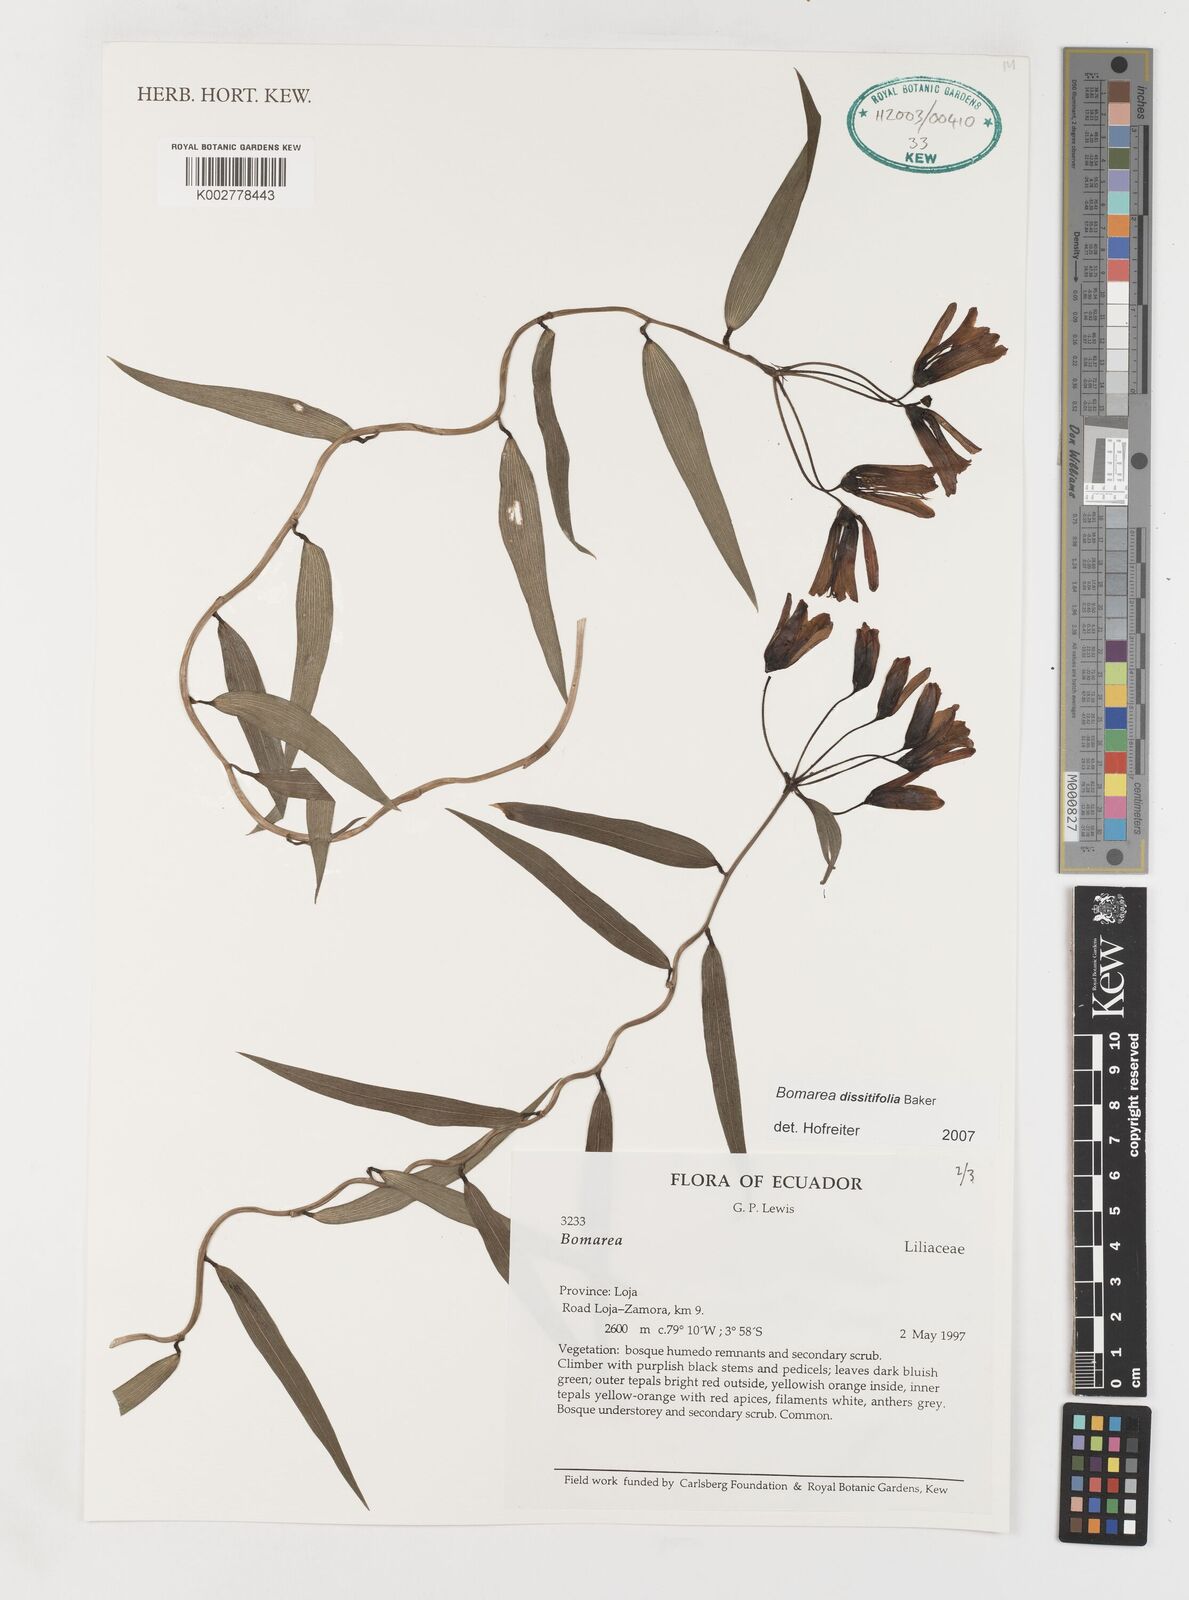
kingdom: Plantae
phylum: Tracheophyta
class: Liliopsida
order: Liliales
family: Alstroemeriaceae
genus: Bomarea
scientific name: Bomarea dissitifolia
